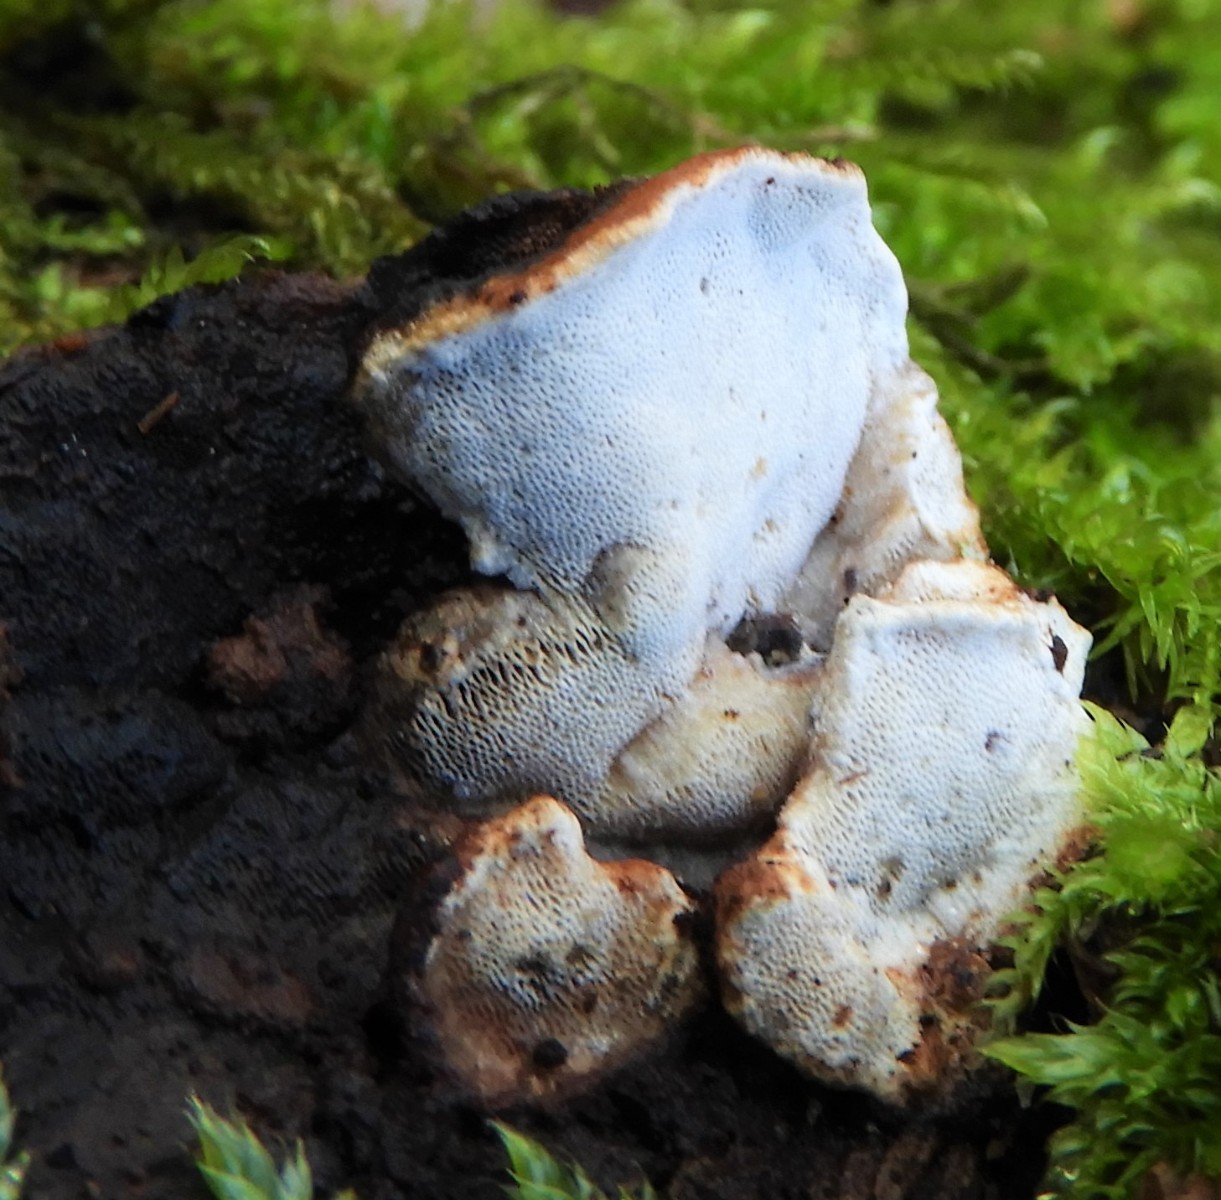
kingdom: Fungi
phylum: Basidiomycota
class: Agaricomycetes
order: Polyporales
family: Incrustoporiaceae
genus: Skeletocutis
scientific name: Skeletocutis nemoralis
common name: stor krystalporesvamp
